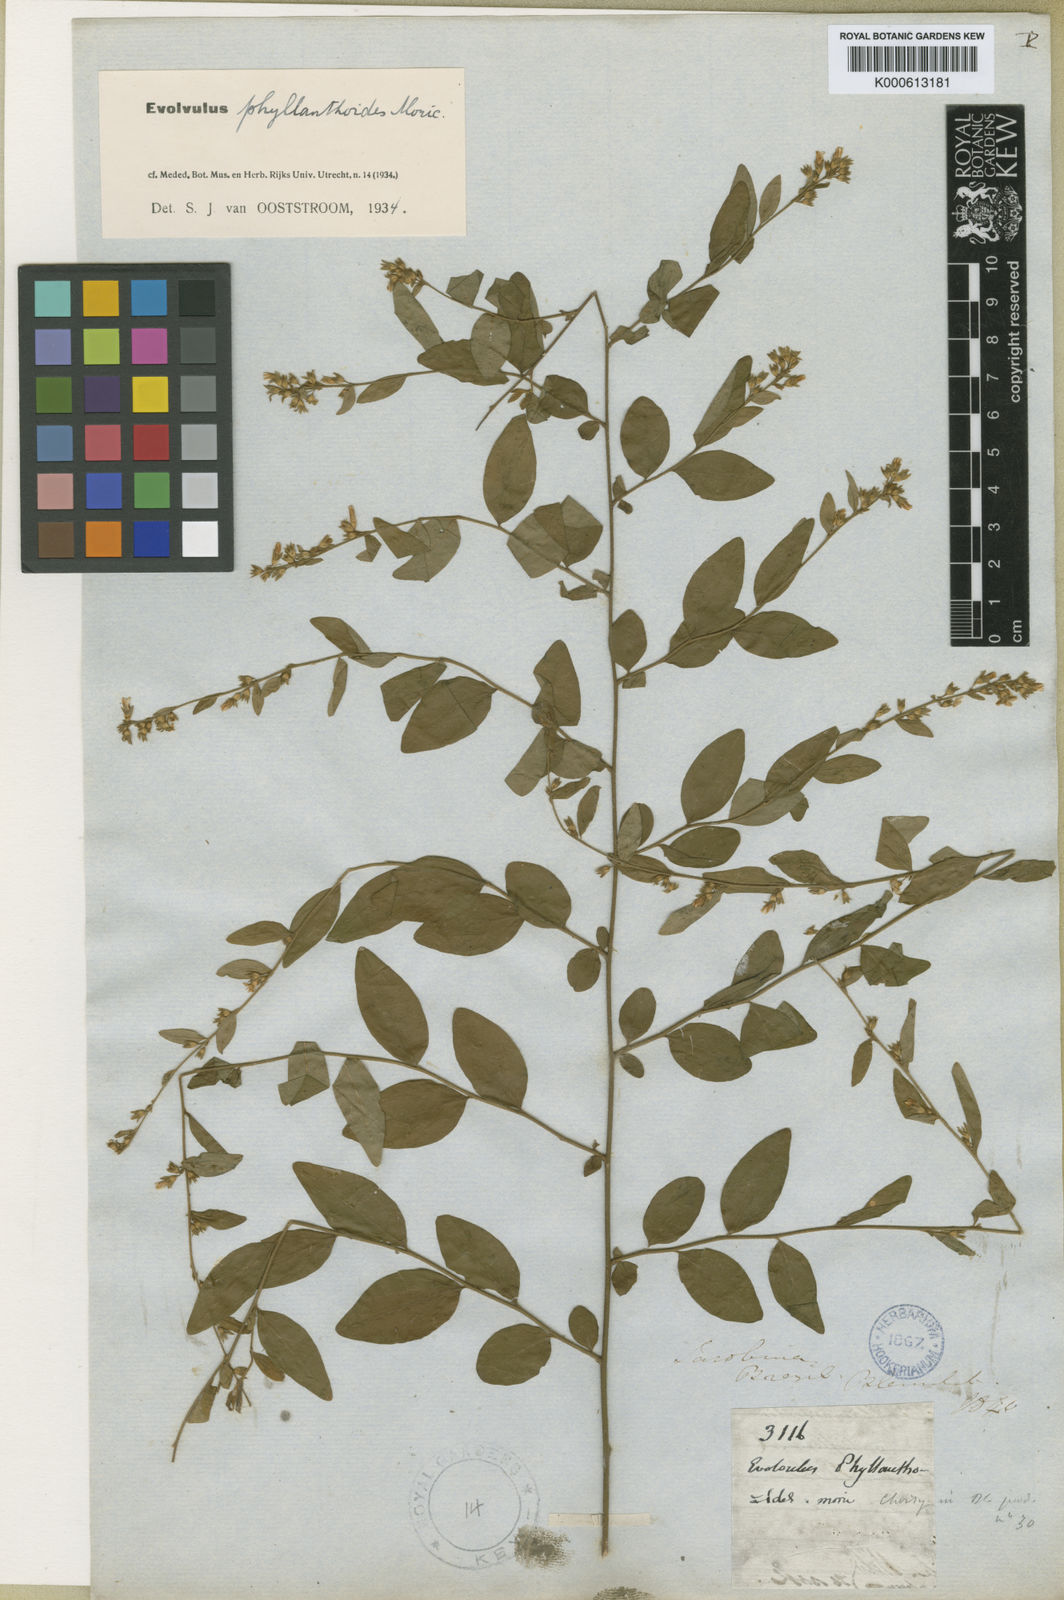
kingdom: Plantae
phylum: Tracheophyta
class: Magnoliopsida
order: Solanales
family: Convolvulaceae
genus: Evolvulus
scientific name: Evolvulus phyllanthoides
